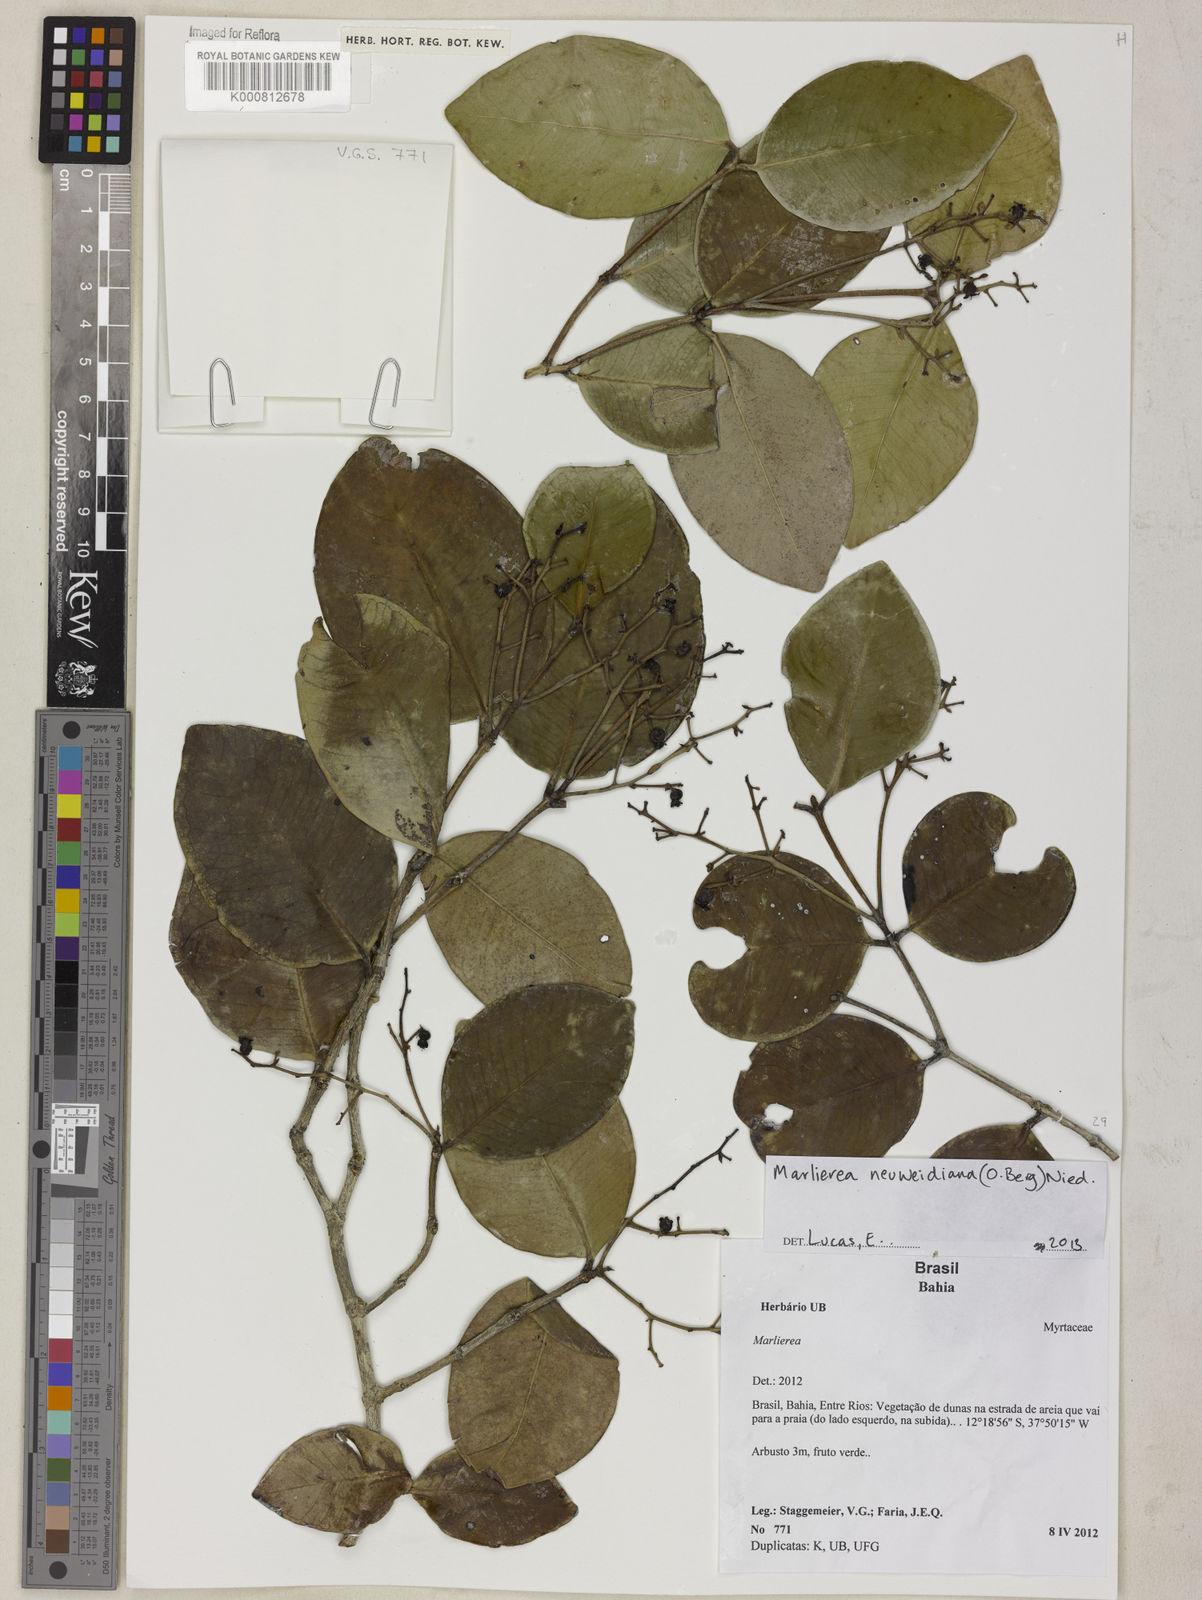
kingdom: Plantae
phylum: Tracheophyta
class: Magnoliopsida
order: Myrtales
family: Myrtaceae
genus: Myrcia
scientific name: Myrcia neuwiedeana
